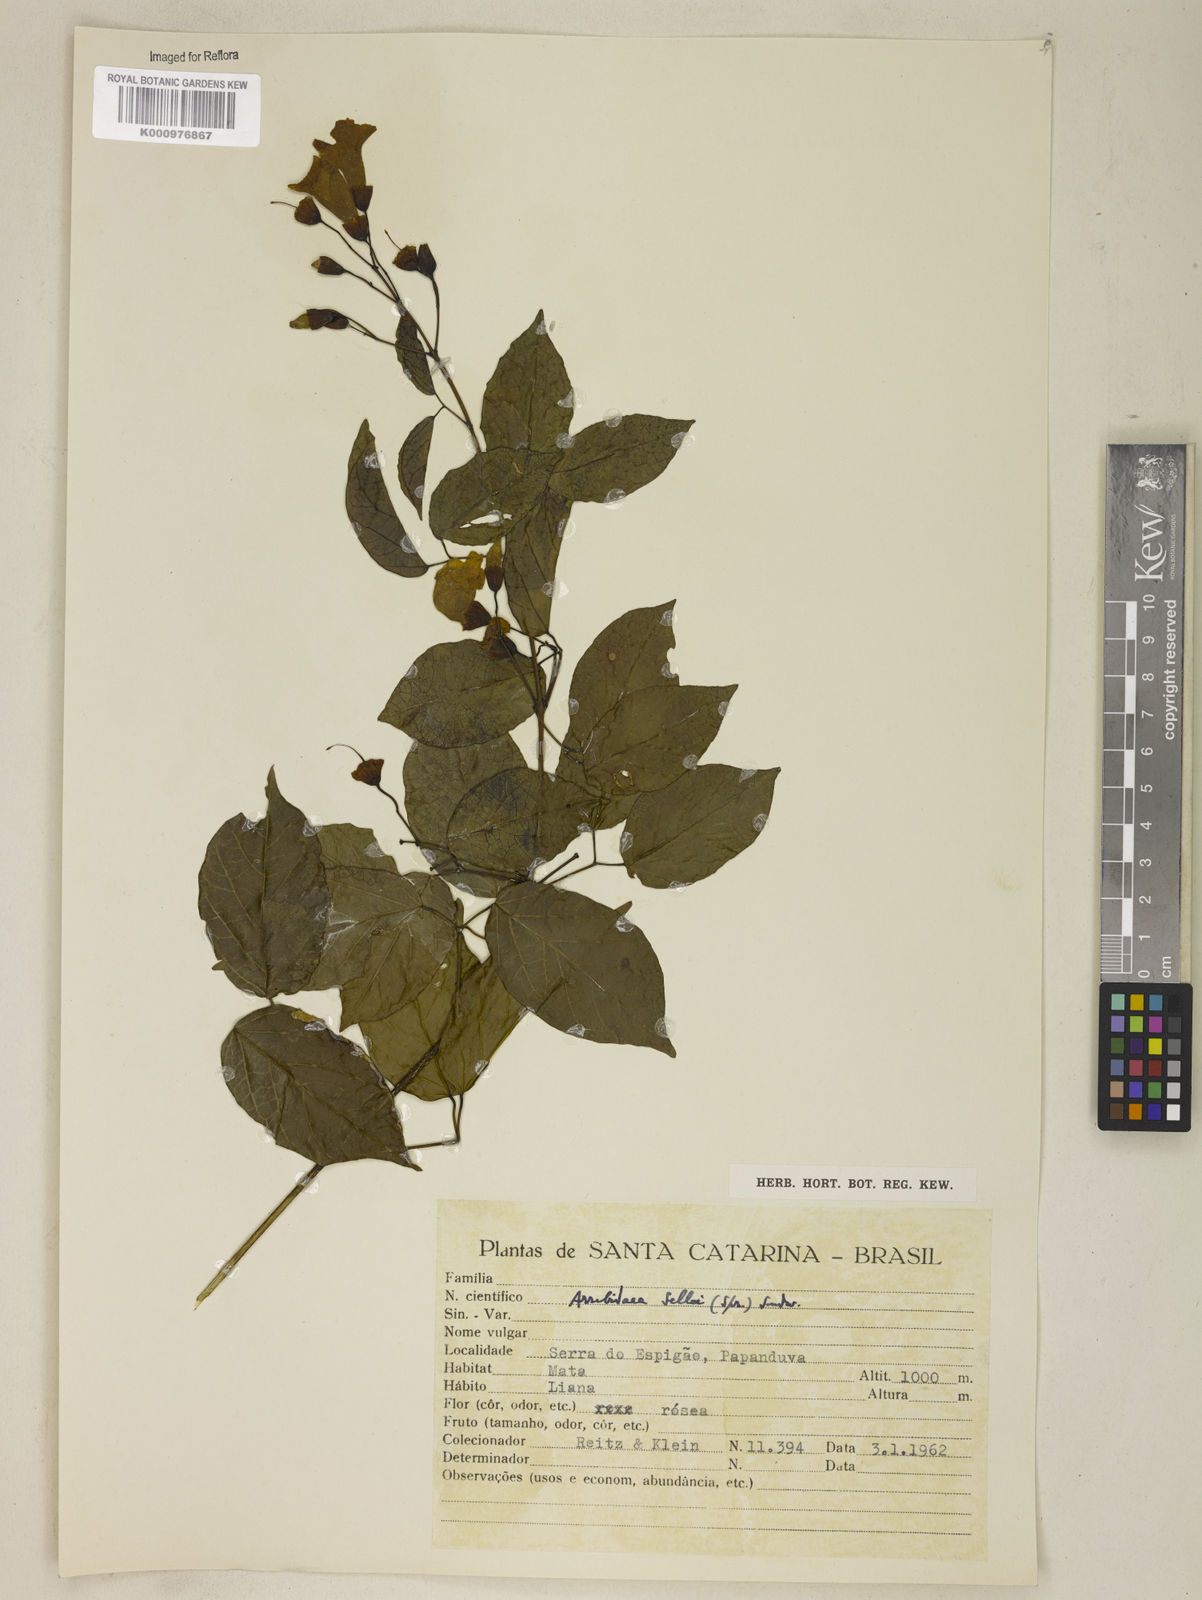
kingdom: Plantae
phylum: Tracheophyta
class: Magnoliopsida
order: Lamiales
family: Bignoniaceae
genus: Tanaecium
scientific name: Tanaecium selloi
